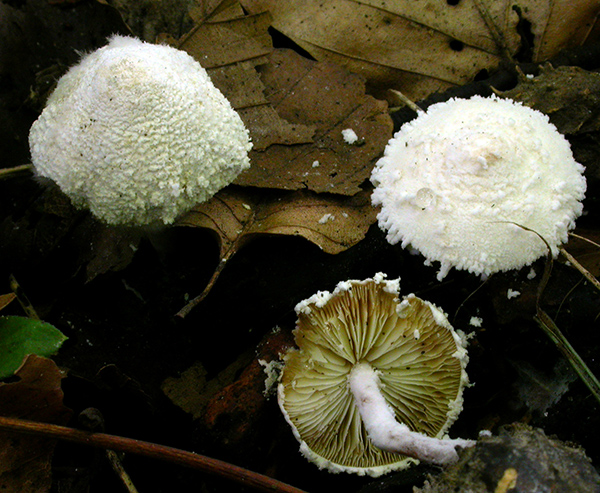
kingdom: Fungi
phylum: Basidiomycota
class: Agaricomycetes
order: Agaricales
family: Agaricaceae
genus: Cystolepiota
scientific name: Cystolepiota seminuda
